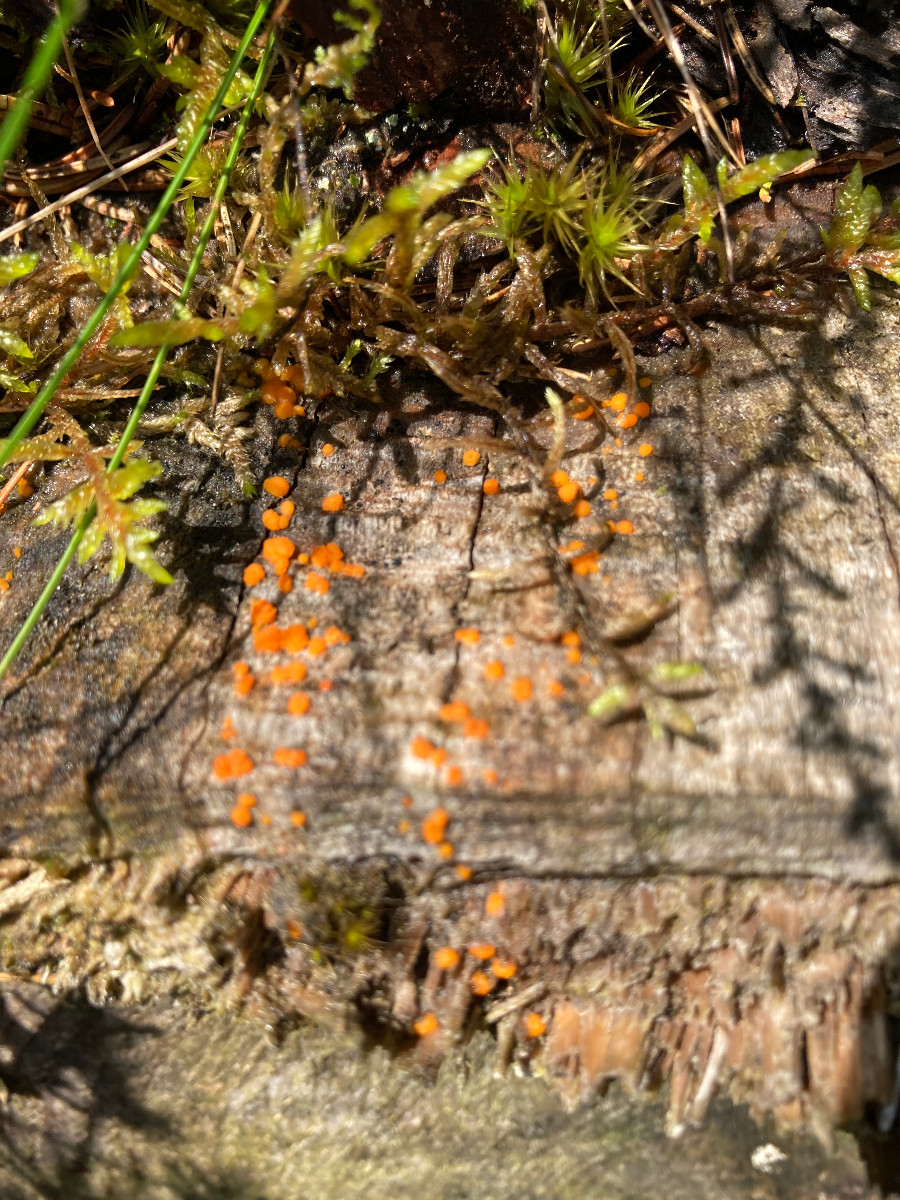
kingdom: Fungi
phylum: Basidiomycota
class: Dacrymycetes
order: Dacrymycetales
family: Dacrymycetaceae
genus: Dacrymyces
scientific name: Dacrymyces stillatus
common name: almindelig tåresvamp
